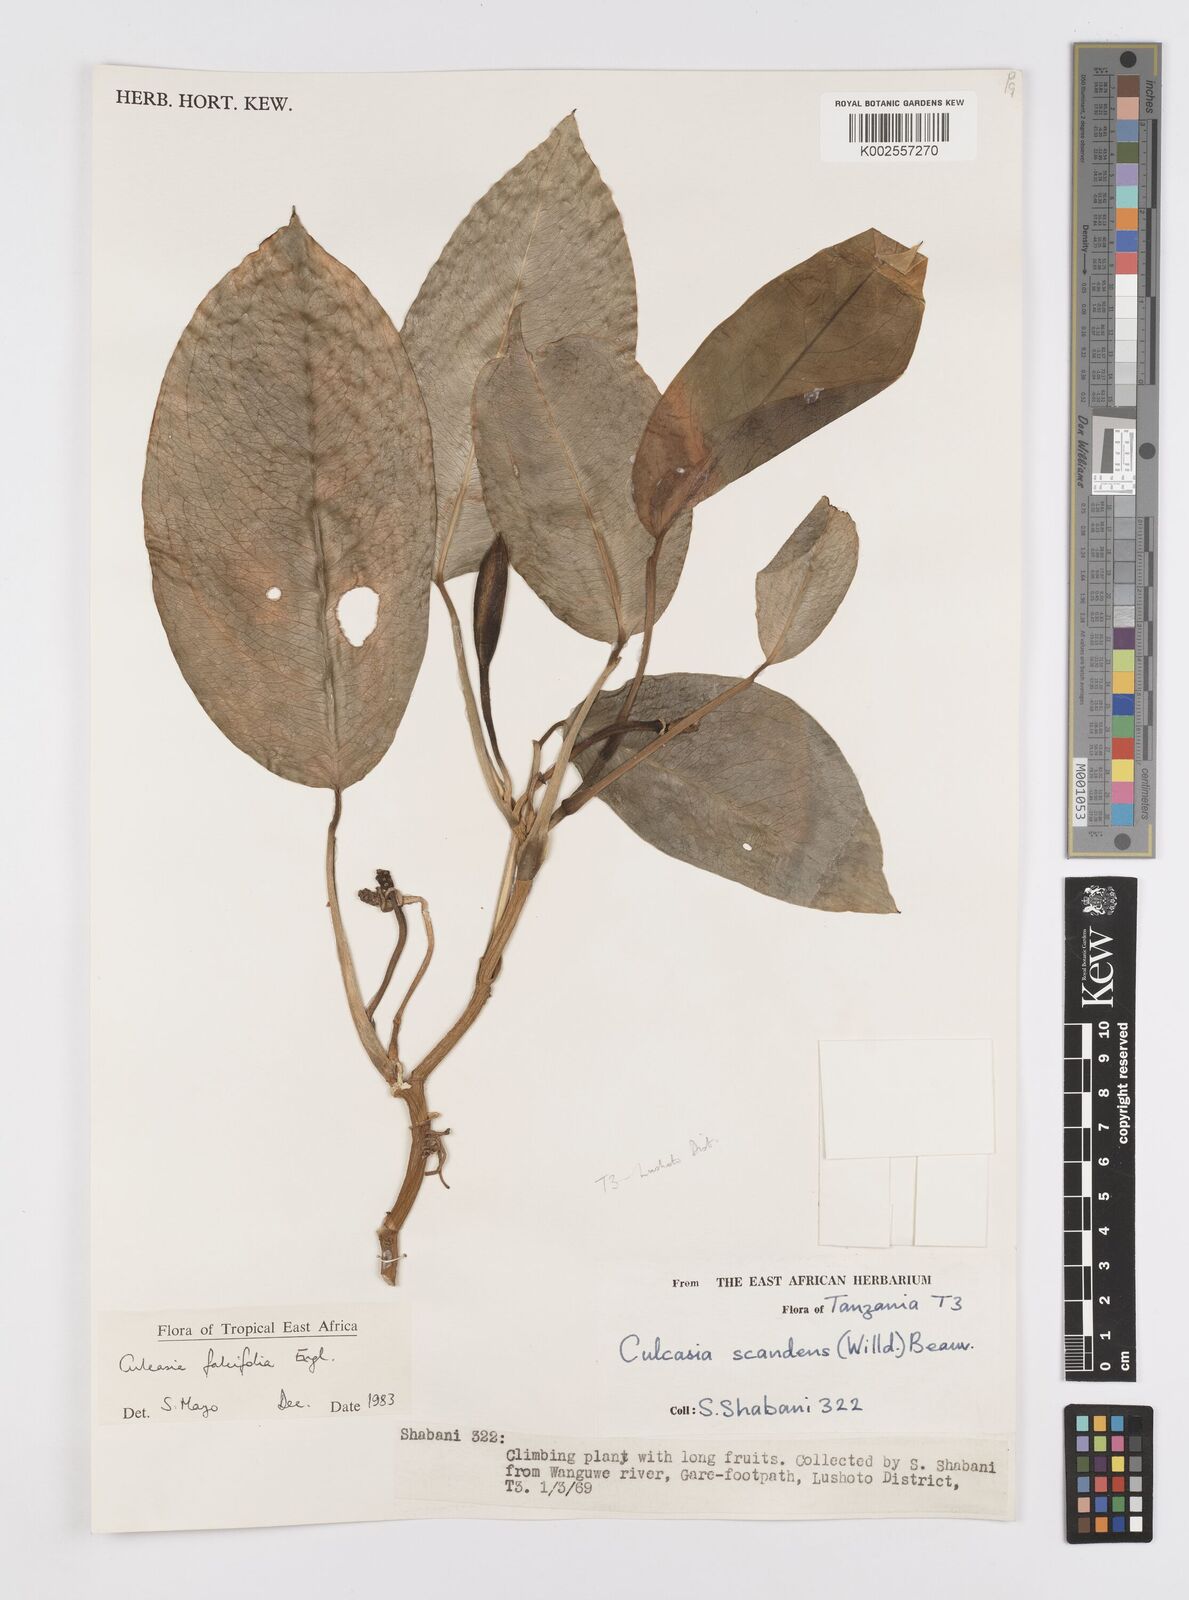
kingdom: Plantae
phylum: Tracheophyta
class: Liliopsida
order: Alismatales
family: Araceae
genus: Culcasia
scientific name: Culcasia falcifolia
